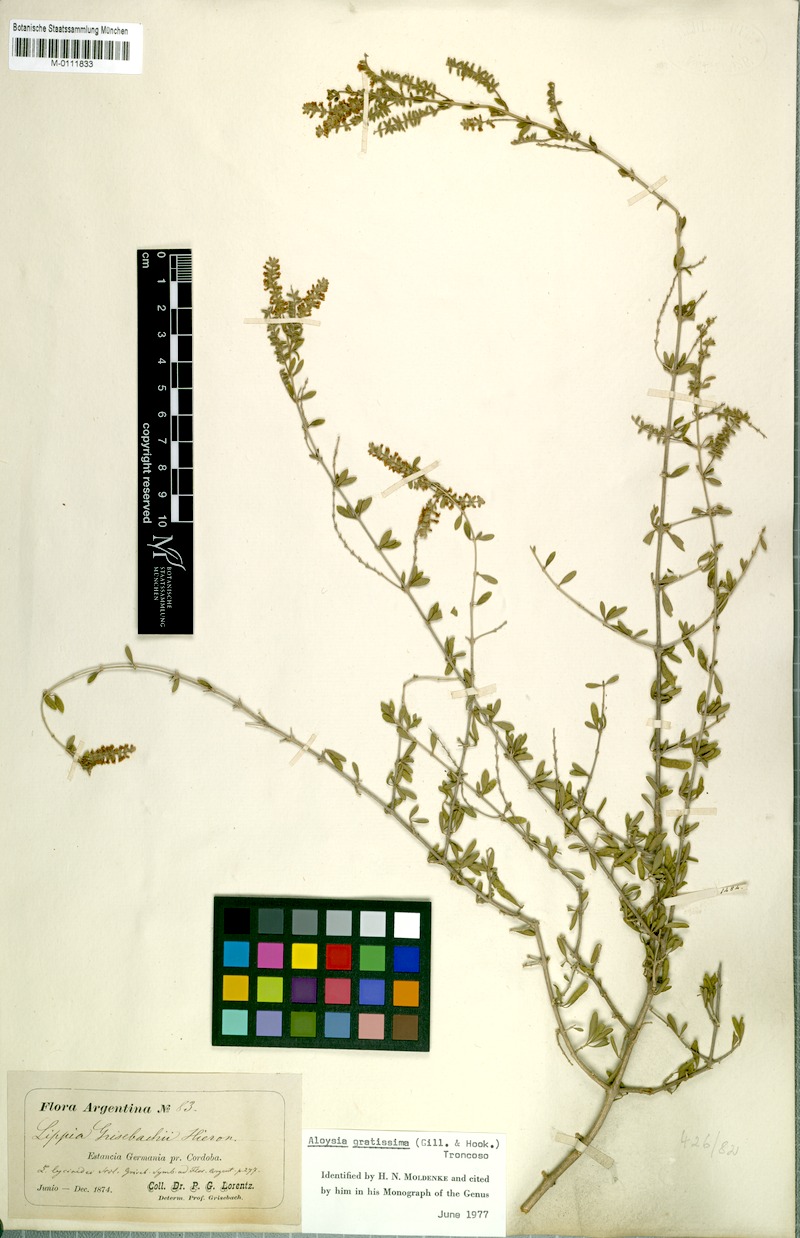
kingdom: Plantae
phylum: Tracheophyta
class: Magnoliopsida
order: Lamiales
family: Verbenaceae
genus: Aloysia
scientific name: Aloysia gratissima
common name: Common bee-brush
